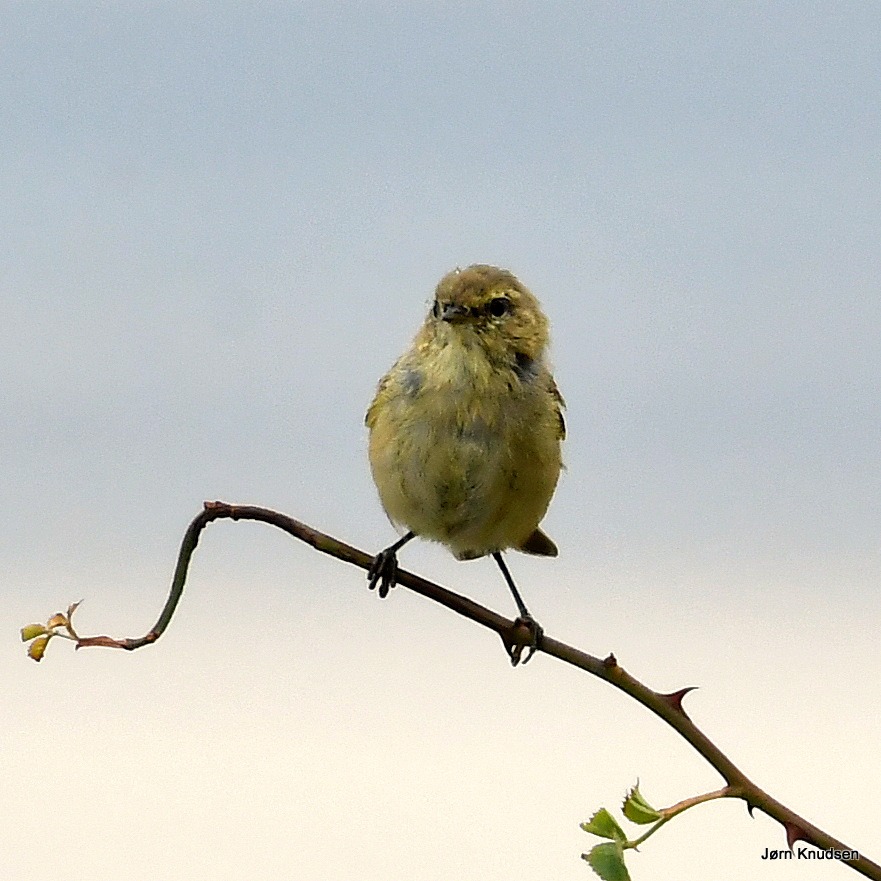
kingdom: Animalia
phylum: Chordata
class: Aves
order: Passeriformes
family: Phylloscopidae
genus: Phylloscopus
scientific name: Phylloscopus collybita
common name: Gransanger
